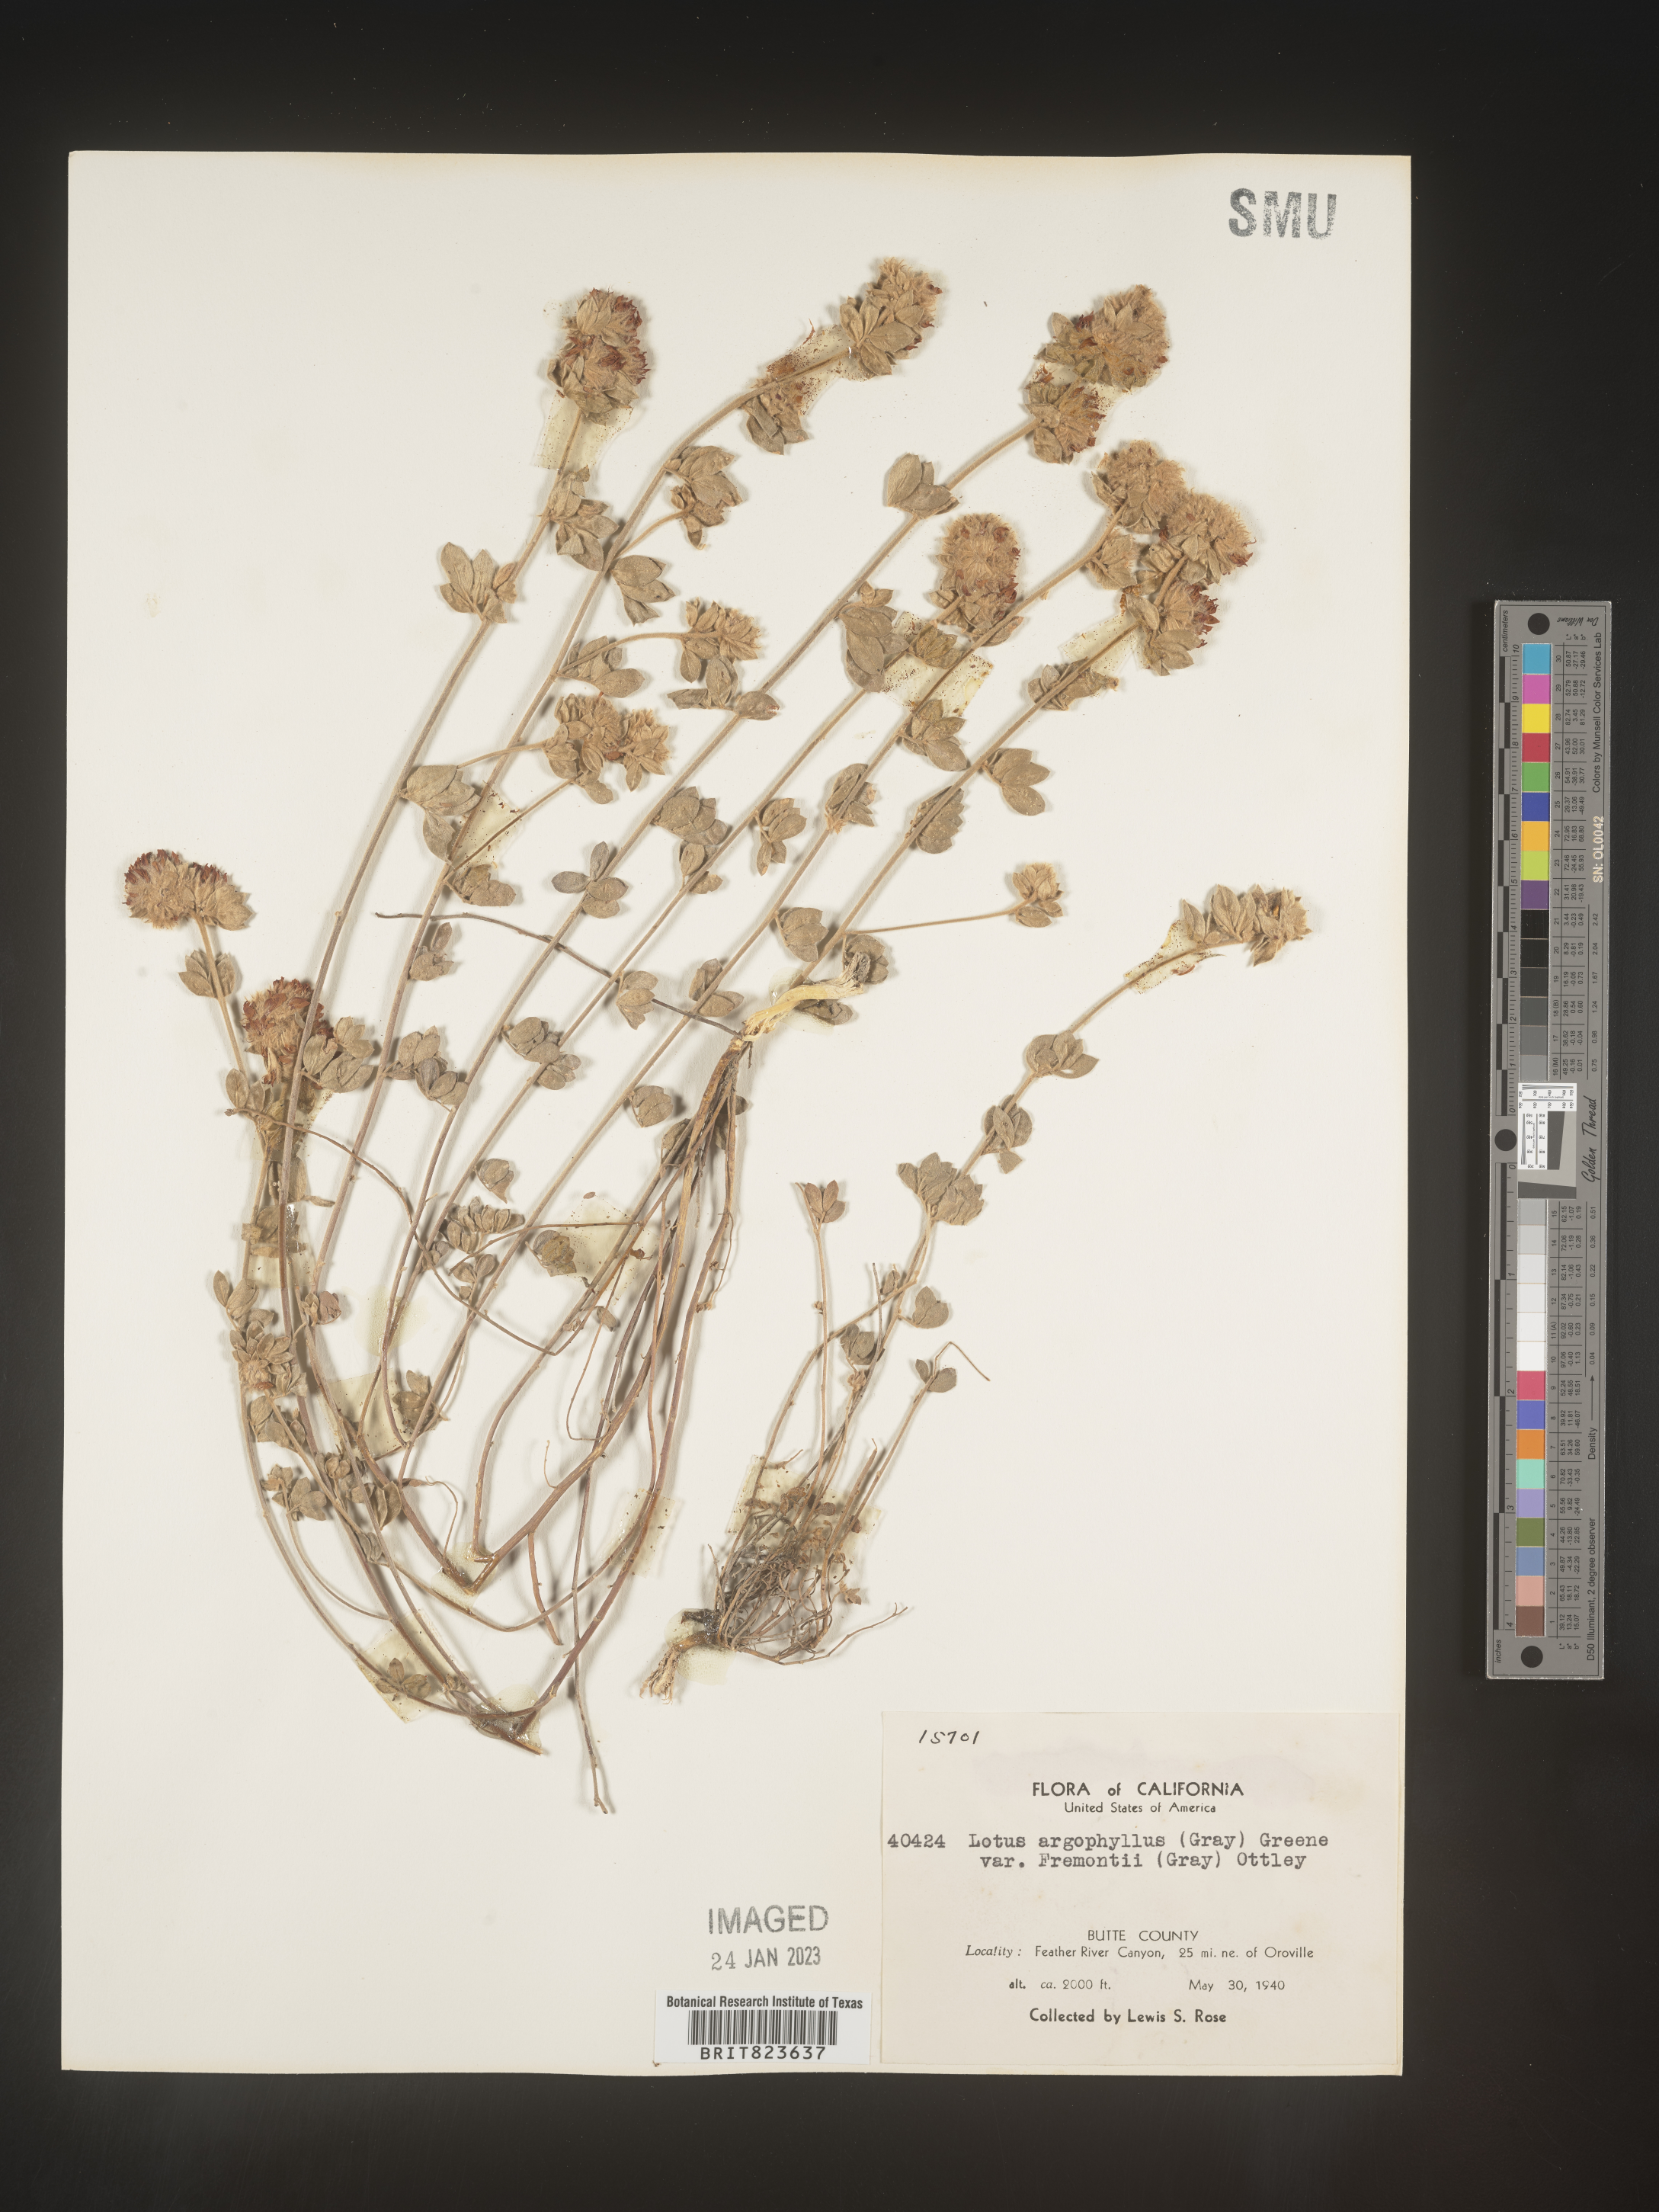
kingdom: Plantae
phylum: Tracheophyta
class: Magnoliopsida
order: Fabales
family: Fabaceae
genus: Lotus
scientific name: Lotus
